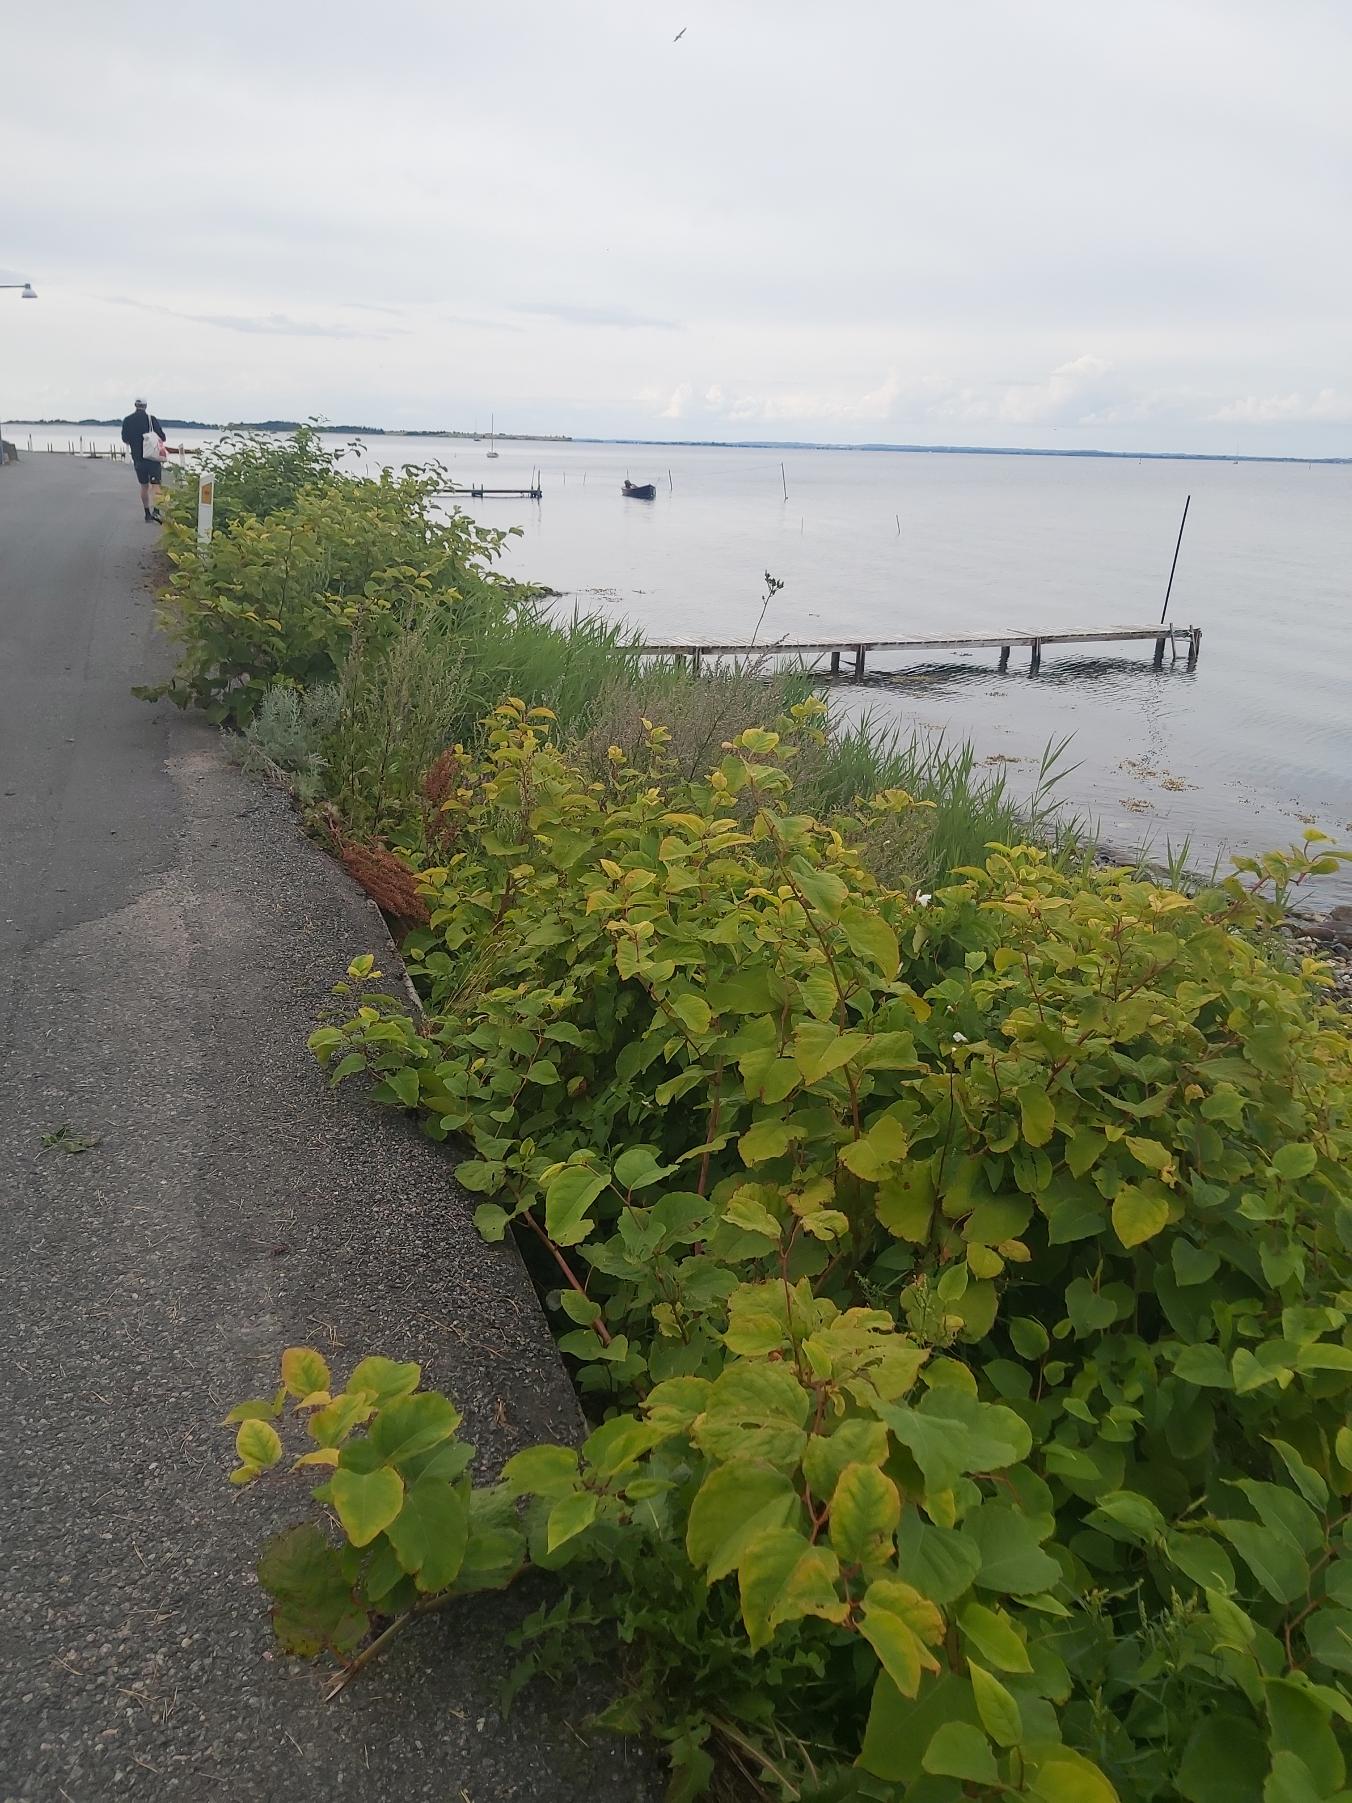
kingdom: Plantae
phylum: Tracheophyta
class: Magnoliopsida
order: Caryophyllales
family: Polygonaceae
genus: Reynoutria
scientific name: Reynoutria japonica
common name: Japan-pileurt
